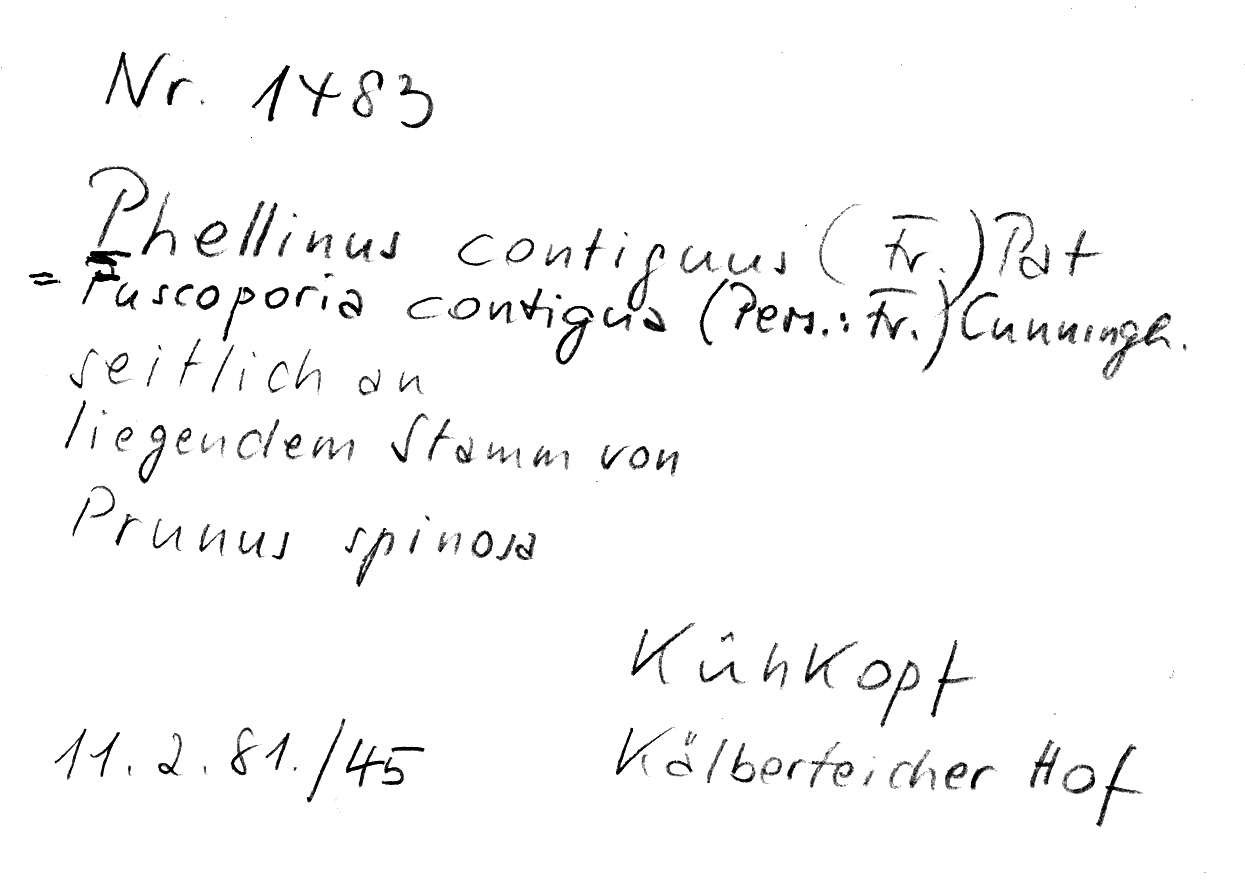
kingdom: Fungi
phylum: Basidiomycota
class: Agaricomycetes
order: Hymenochaetales
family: Hymenochaetaceae
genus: Fuscoporia
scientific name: Fuscoporia contigua
